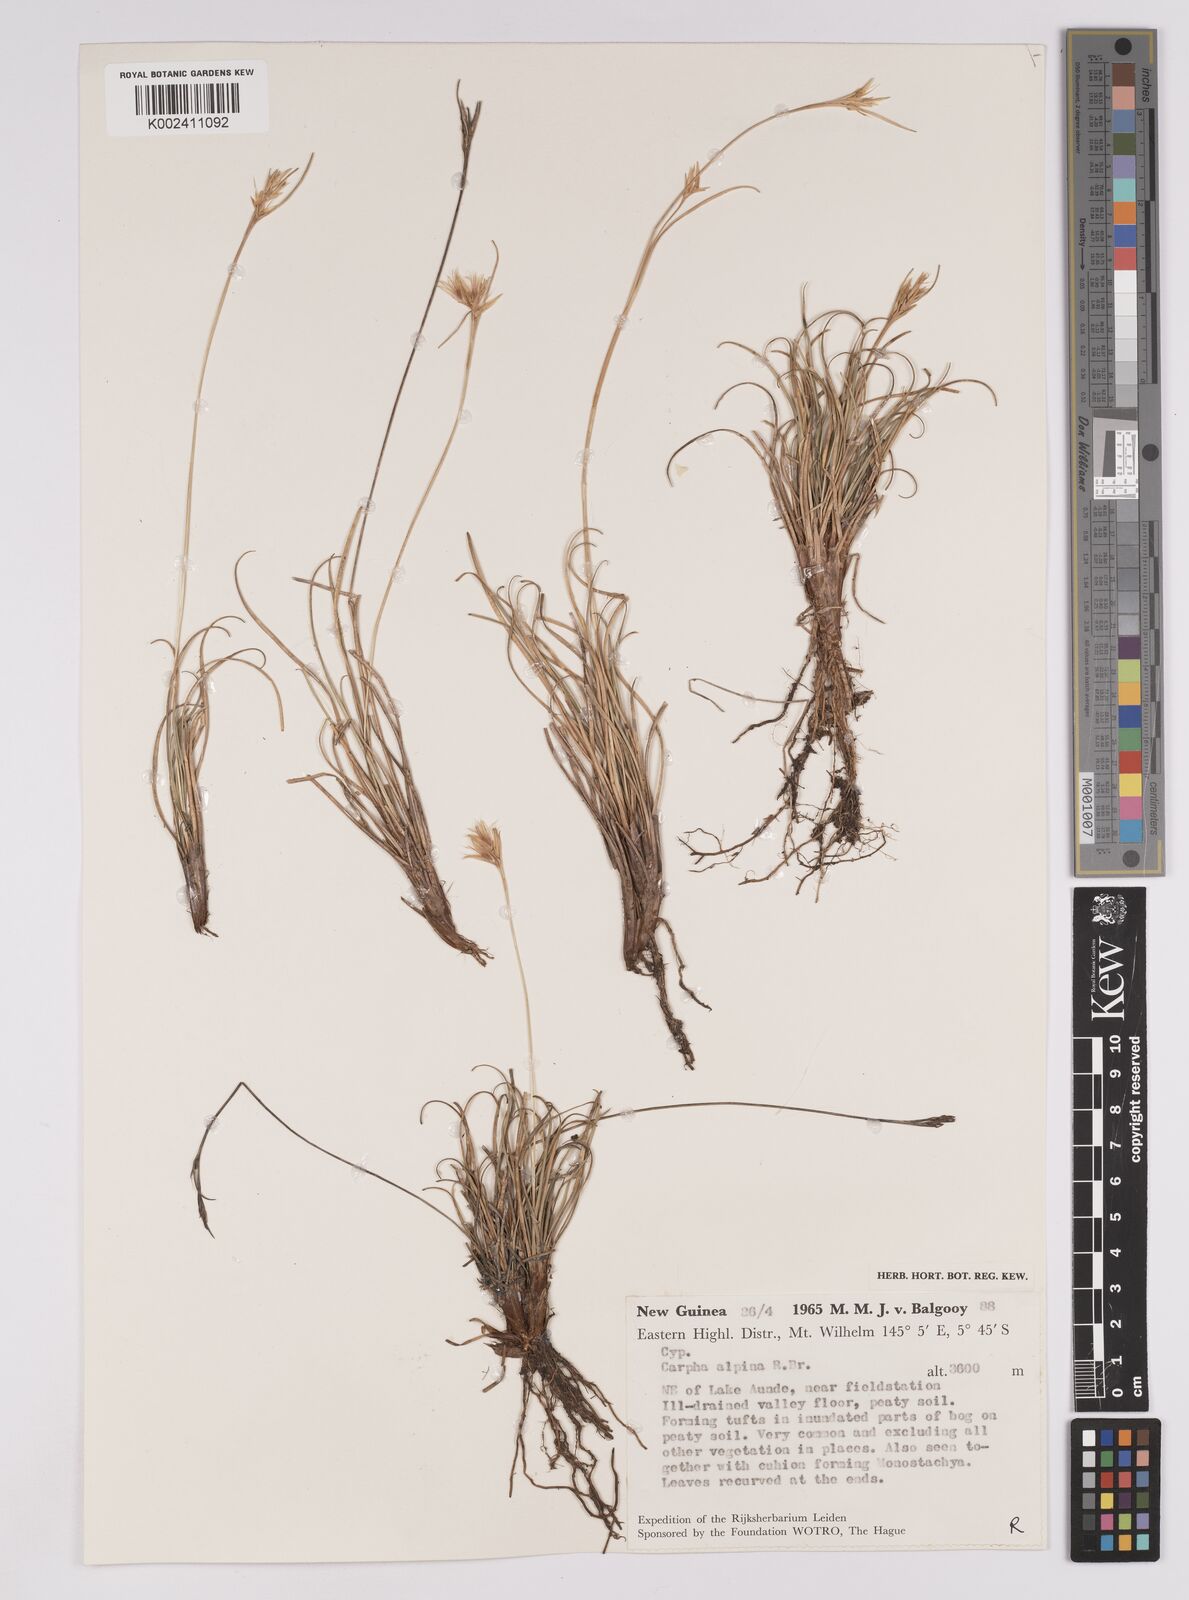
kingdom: Plantae
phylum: Tracheophyta
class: Liliopsida
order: Poales
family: Cyperaceae
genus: Carpha
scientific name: Carpha alpina
